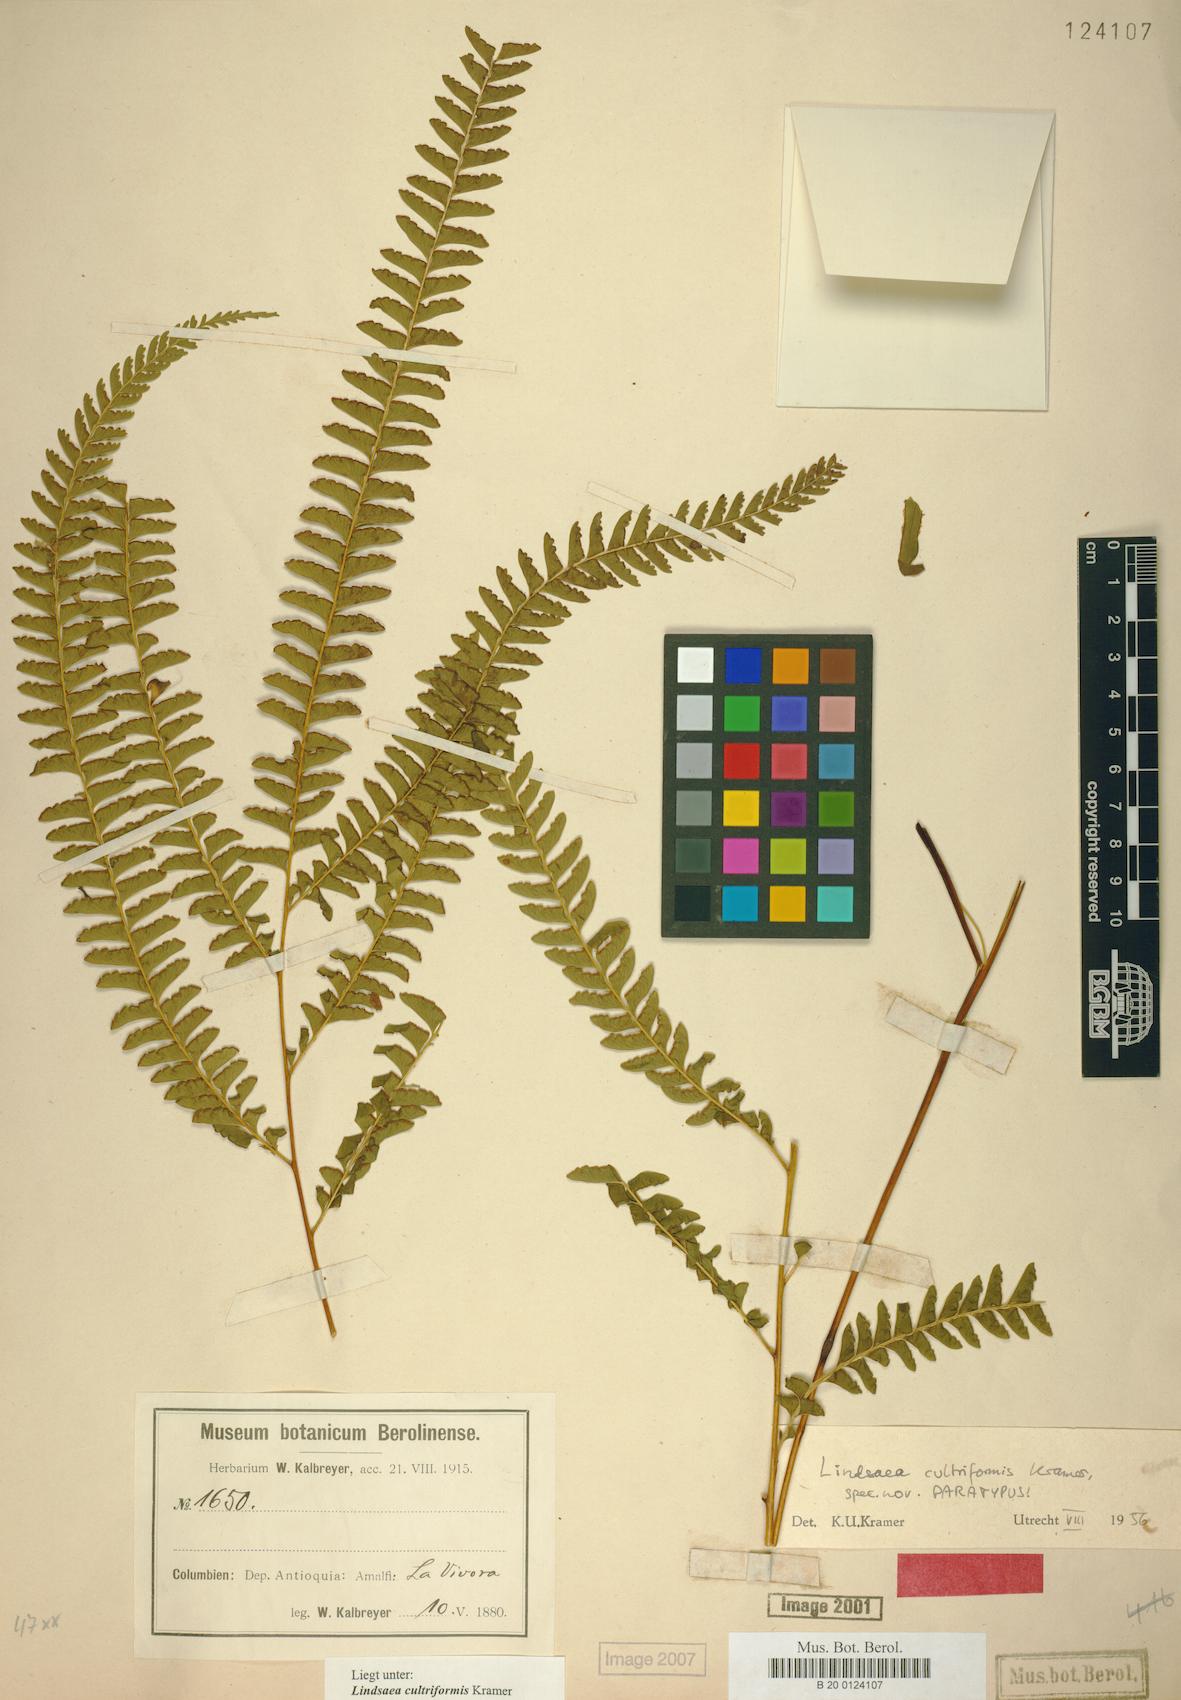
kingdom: Plantae
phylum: Tracheophyta
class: Polypodiopsida
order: Polypodiales
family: Lindsaeaceae
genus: Lindsaea
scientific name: Lindsaea cultriformis
